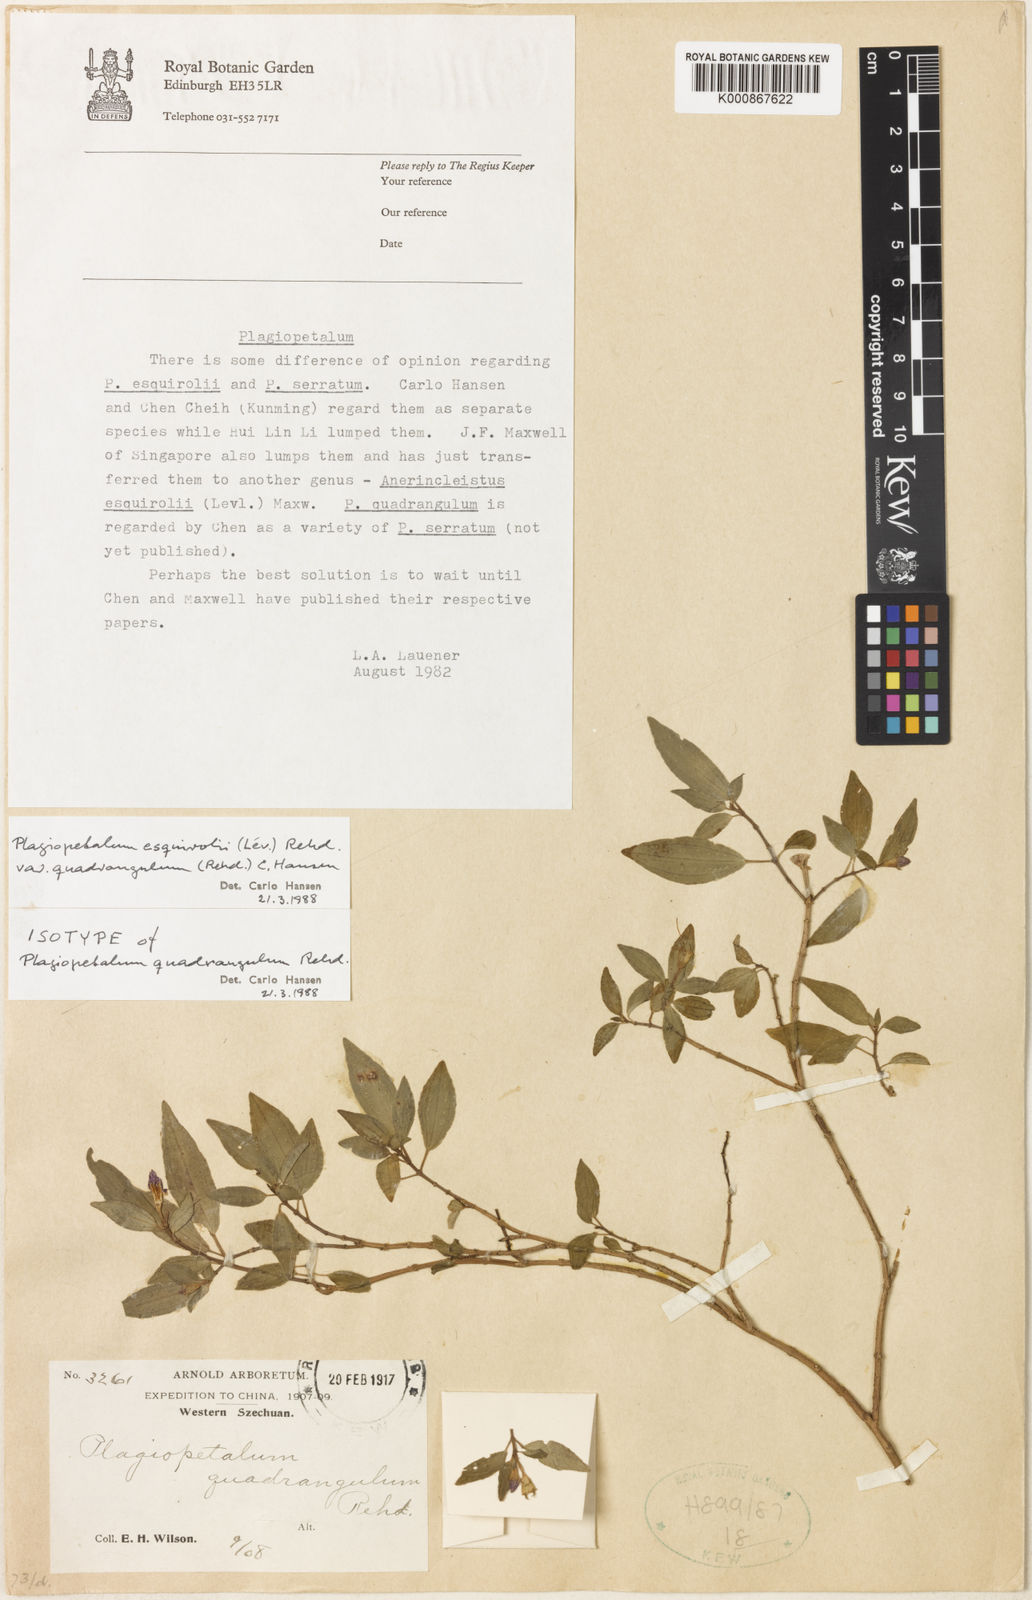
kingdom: Plantae
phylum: Tracheophyta
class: Magnoliopsida
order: Myrtales
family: Melastomataceae
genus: Plagiopetalum
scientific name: Plagiopetalum
